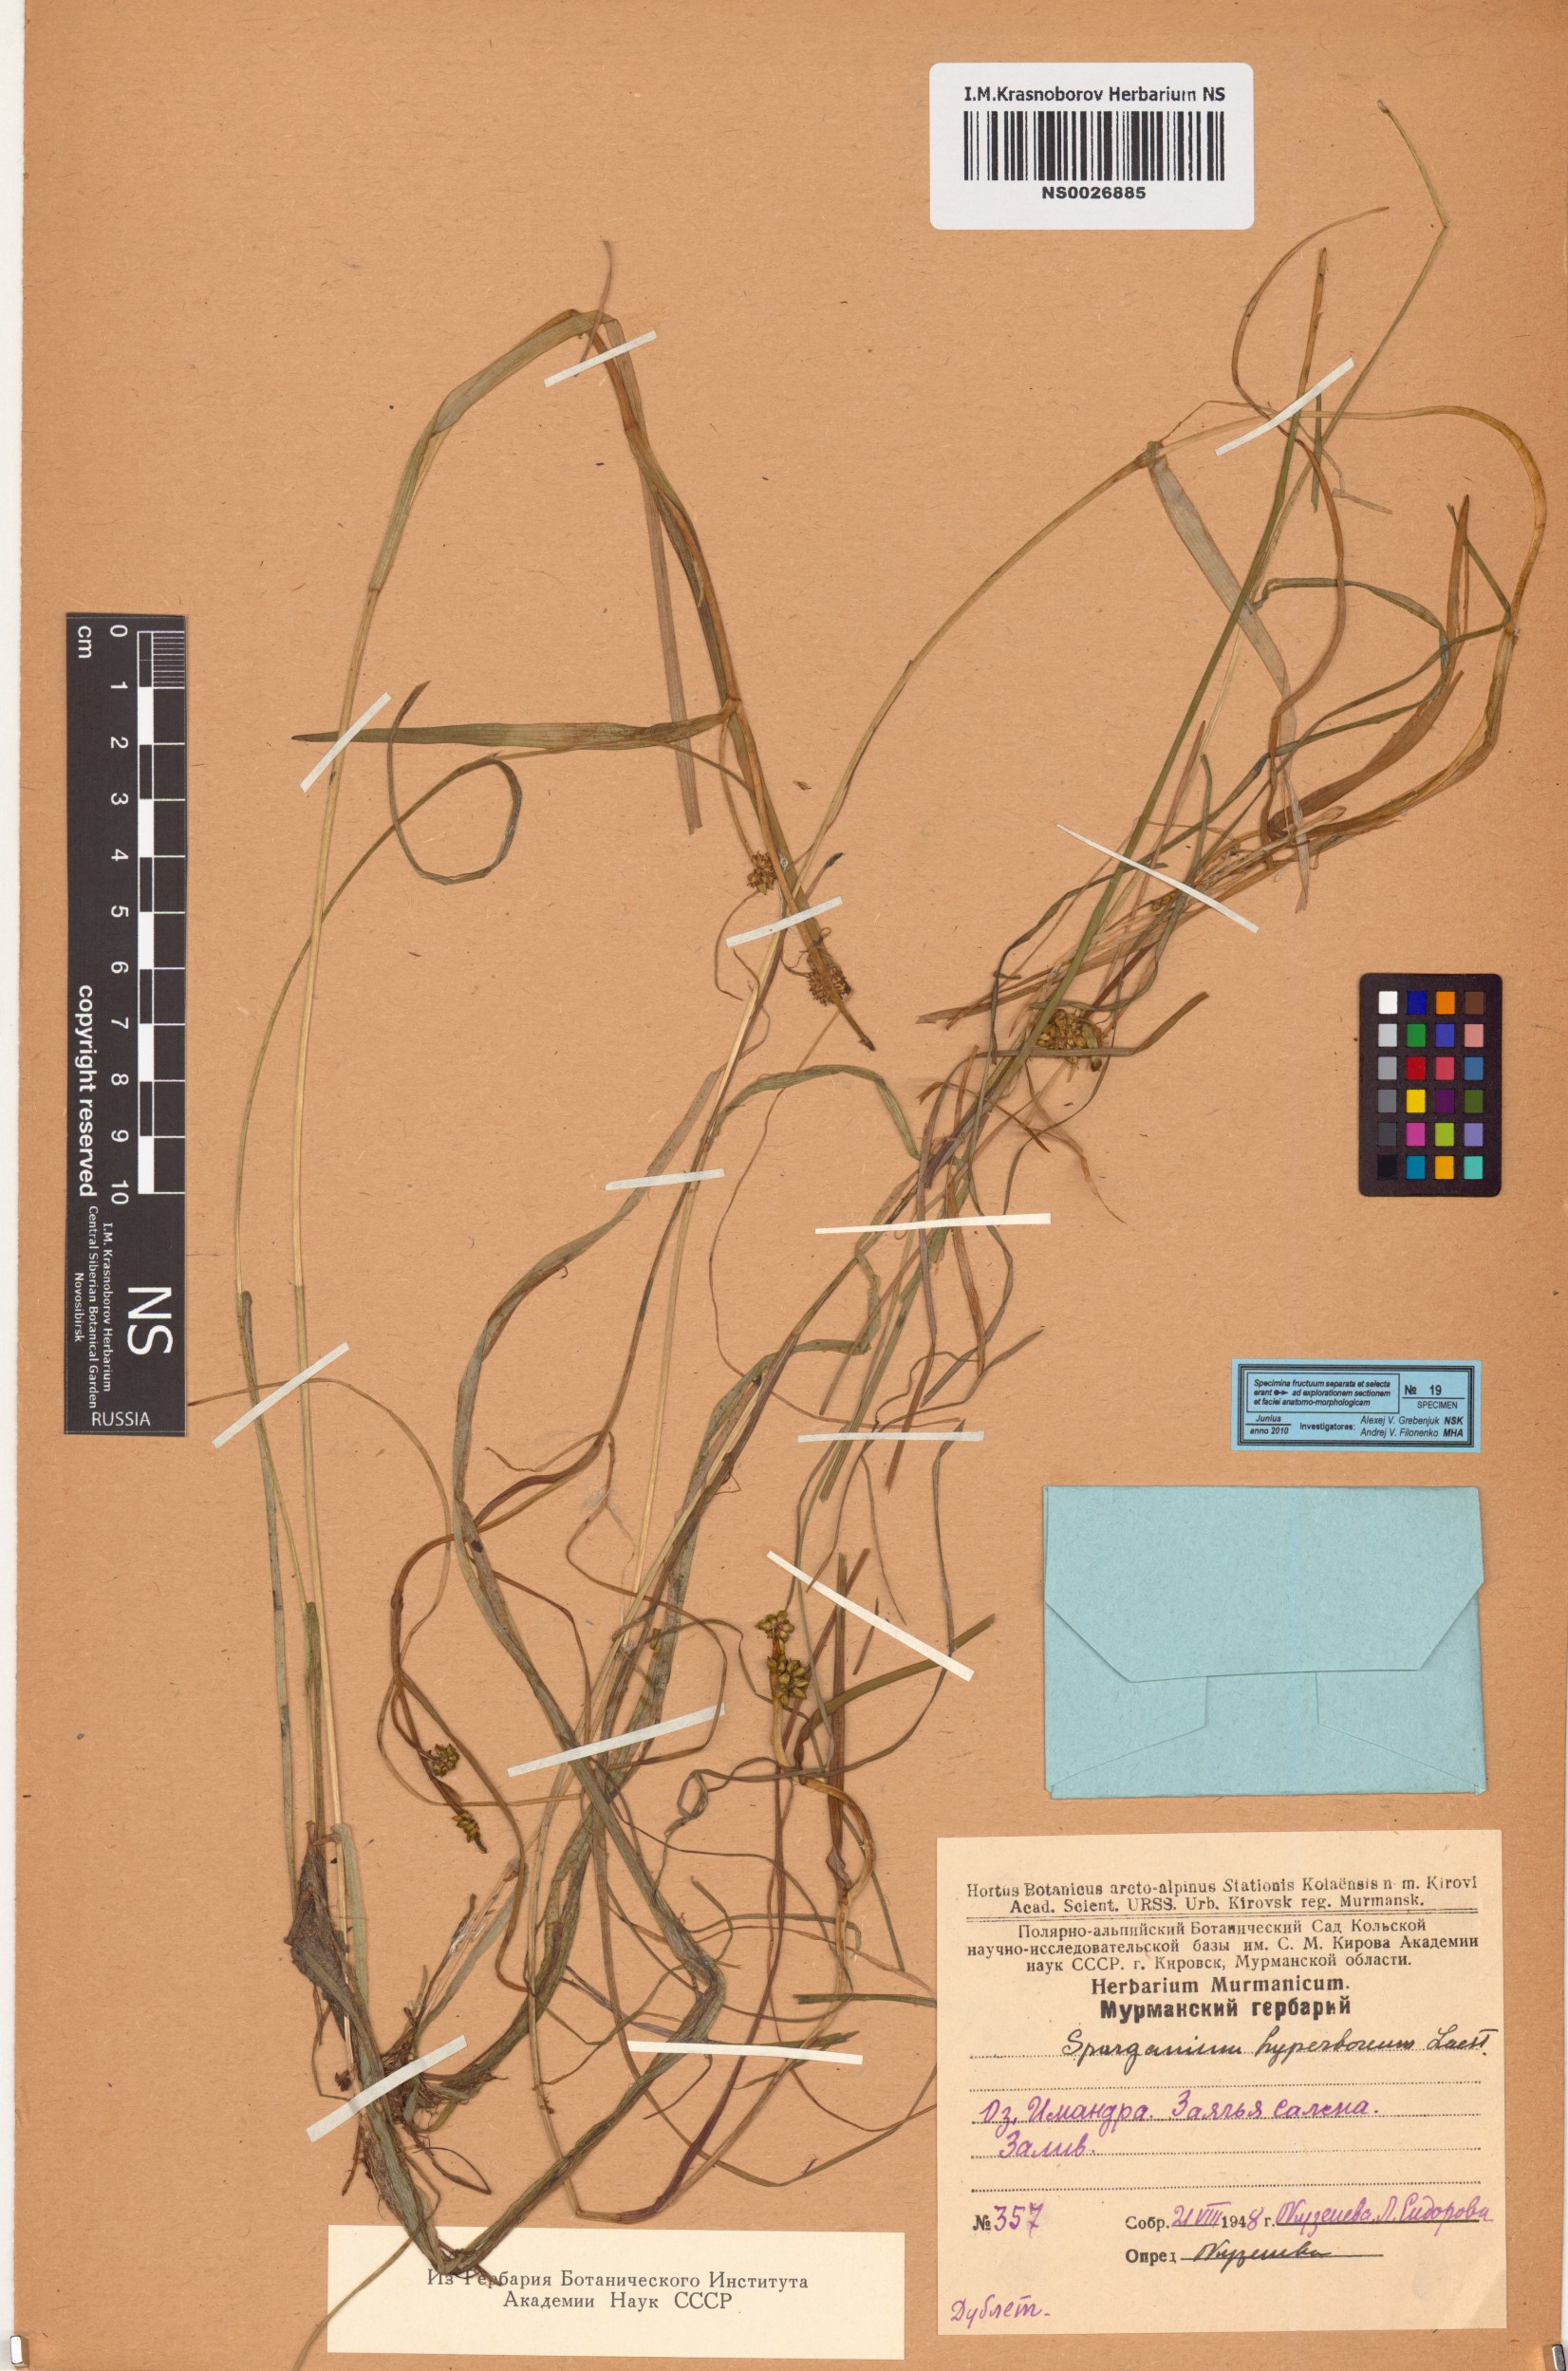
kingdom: Plantae
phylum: Tracheophyta
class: Liliopsida
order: Poales
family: Typhaceae
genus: Sparganium
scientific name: Sparganium hyperboreum
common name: Arctic burreed
